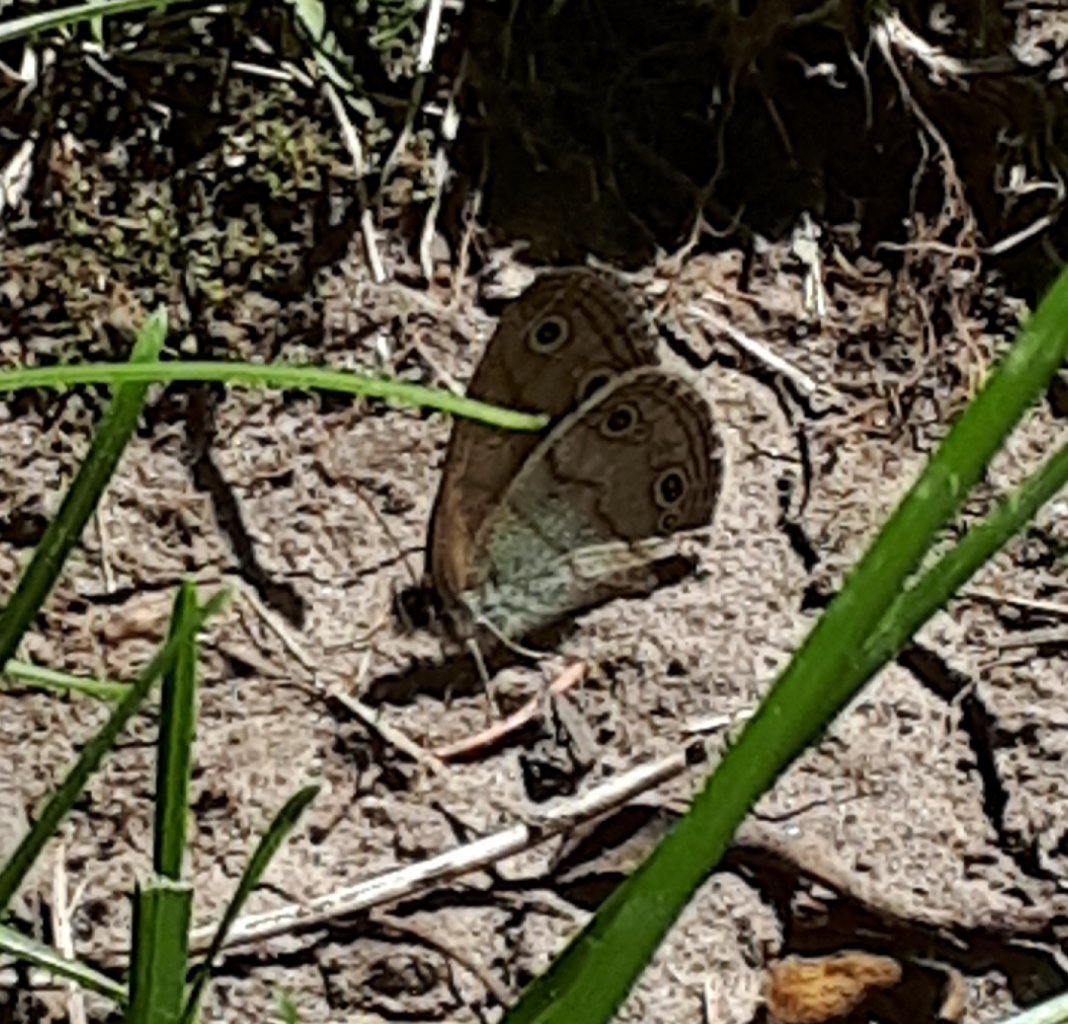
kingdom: Animalia
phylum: Arthropoda
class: Insecta
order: Lepidoptera
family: Nymphalidae
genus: Euptychia
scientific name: Euptychia cymela
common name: Little Wood Satyr
